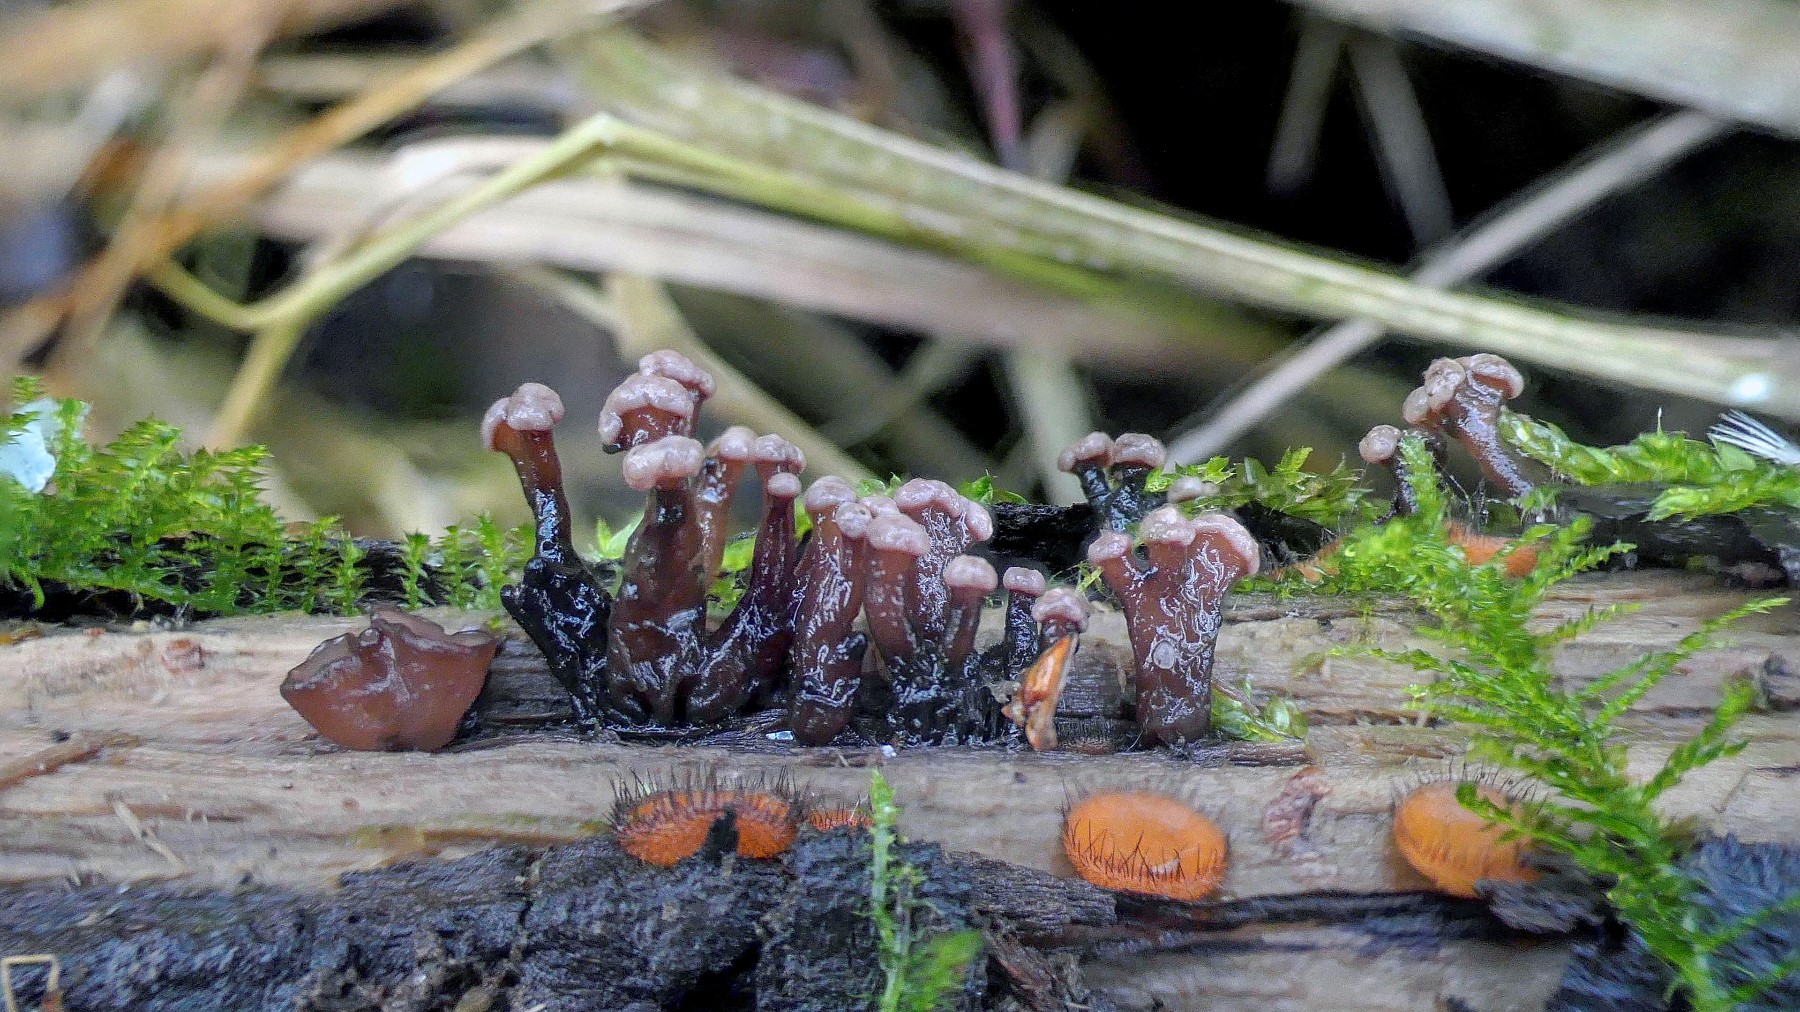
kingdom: Fungi
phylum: Ascomycota
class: Leotiomycetes
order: Helotiales
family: Gelatinodiscaceae
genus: Ascocoryne
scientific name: Ascocoryne albida
